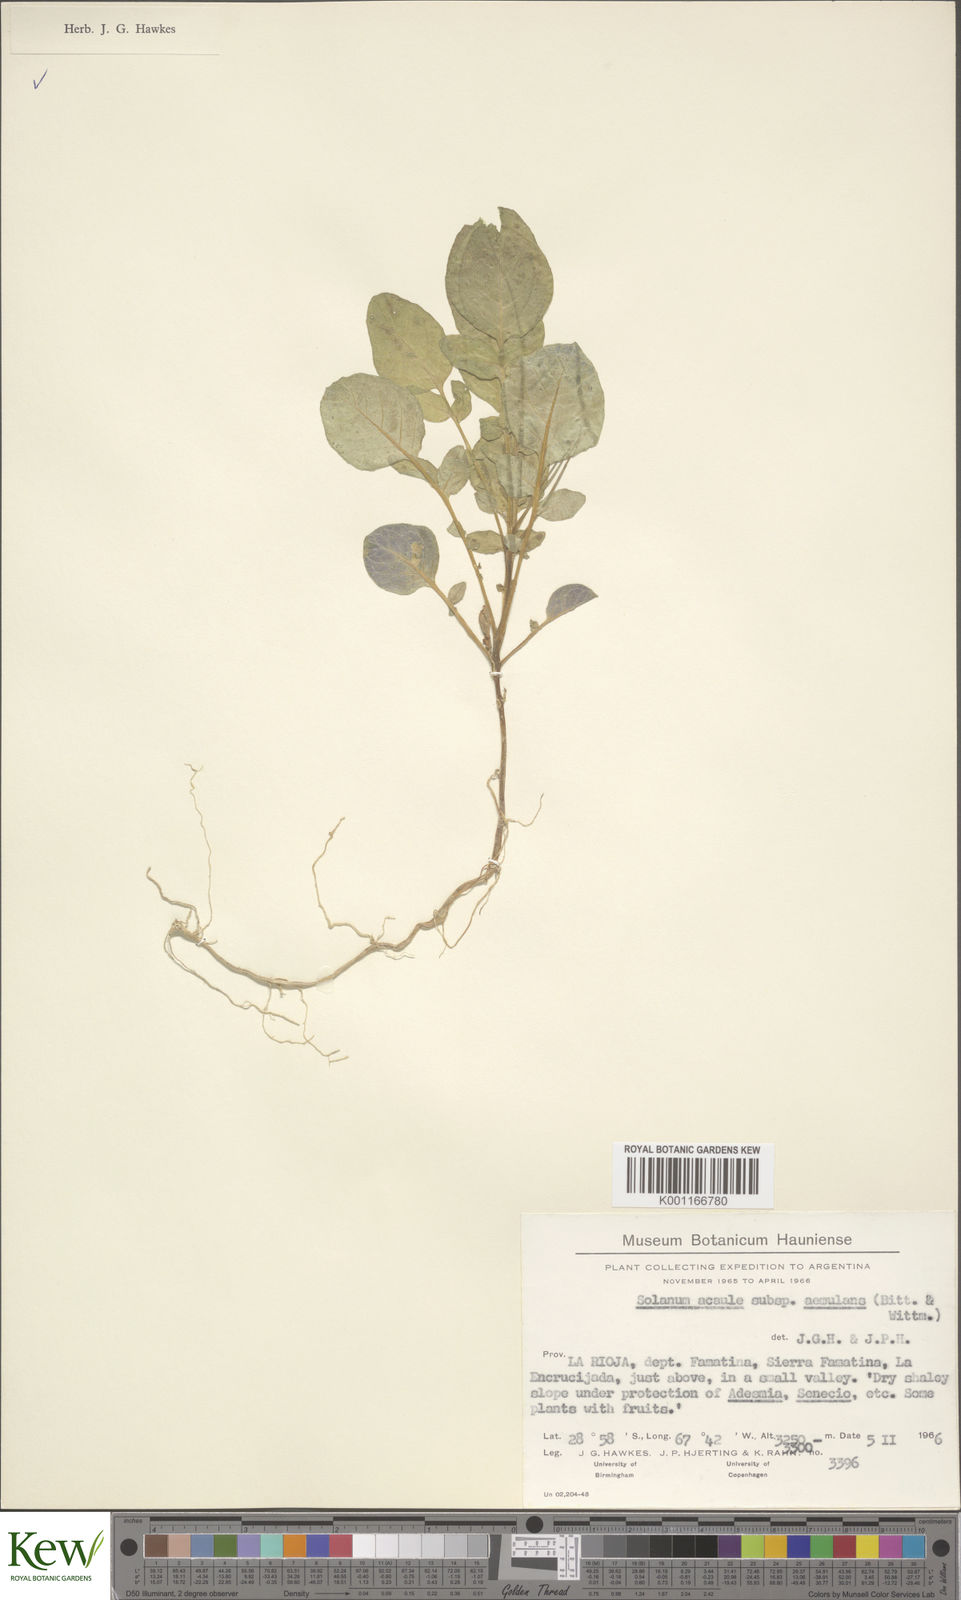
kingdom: Plantae
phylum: Tracheophyta
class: Magnoliopsida
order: Solanales
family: Solanaceae
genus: Solanum
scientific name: Solanum aemulans
